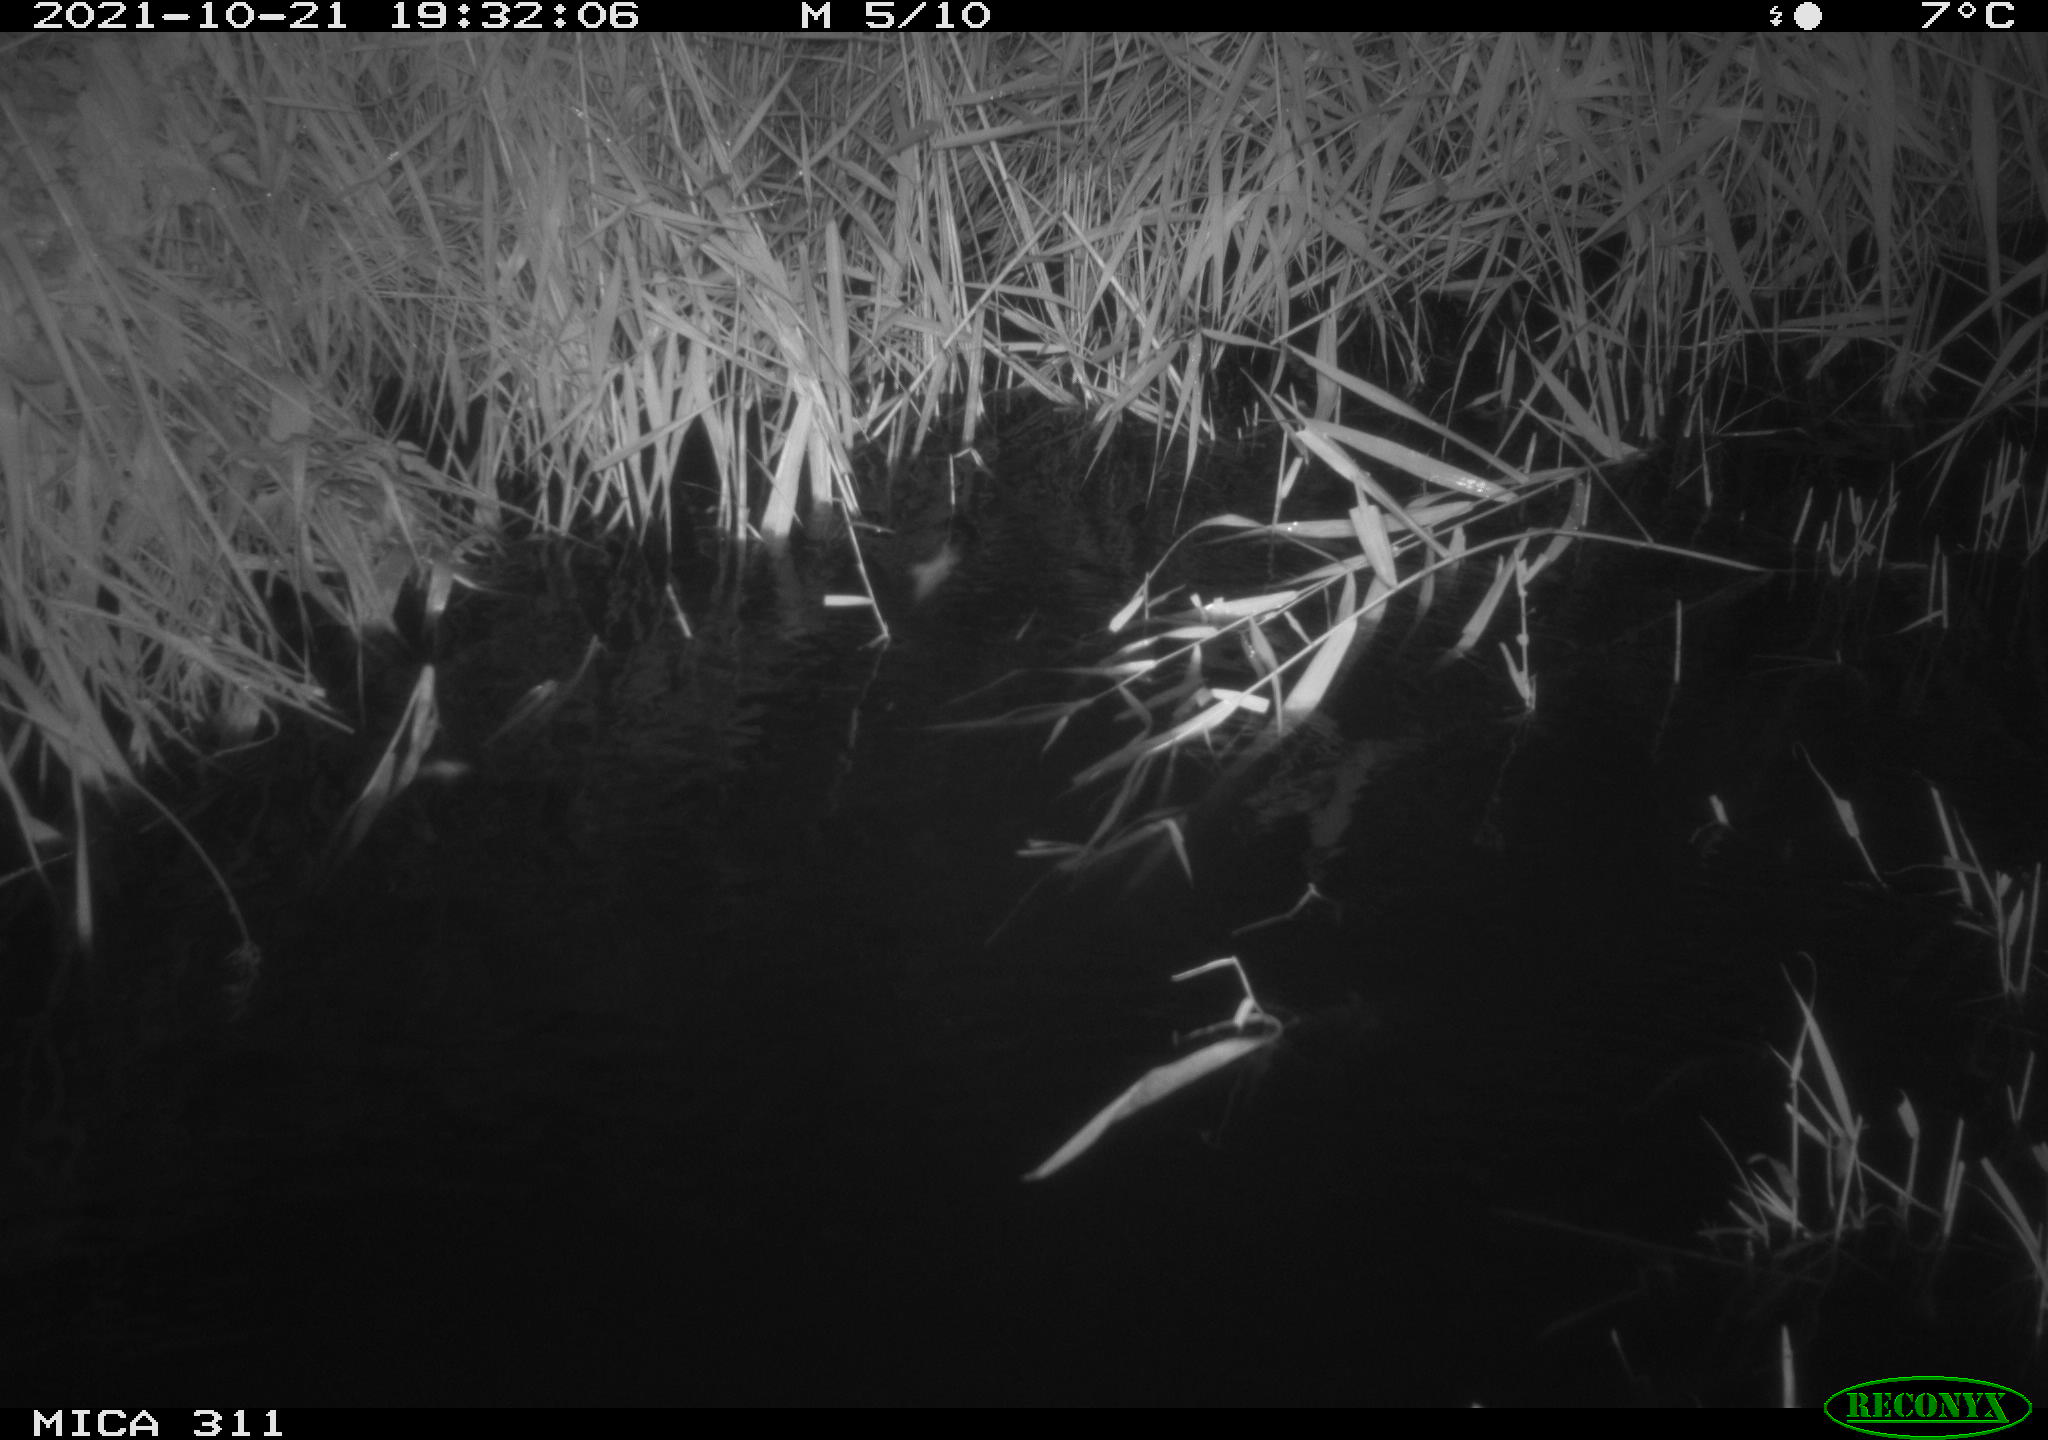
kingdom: Animalia
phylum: Chordata
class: Mammalia
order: Rodentia
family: Muridae
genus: Rattus
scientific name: Rattus norvegicus
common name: Brown rat
